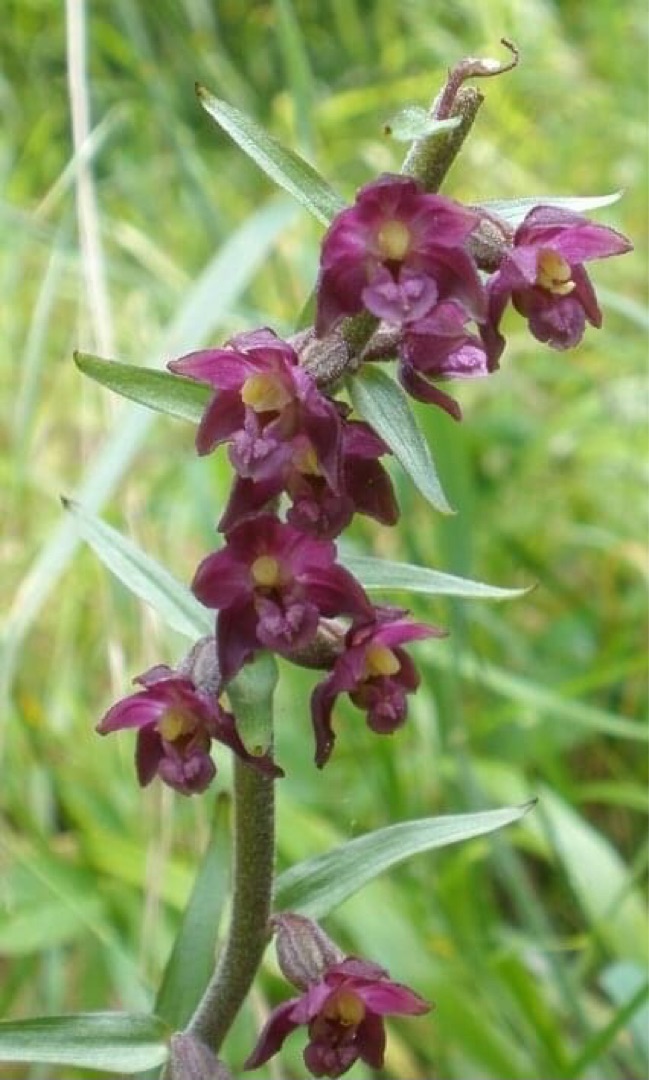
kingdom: Plantae
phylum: Tracheophyta
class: Liliopsida
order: Asparagales
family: Orchidaceae
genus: Epipactis
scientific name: Epipactis atrorubens
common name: Rød hullæbe
